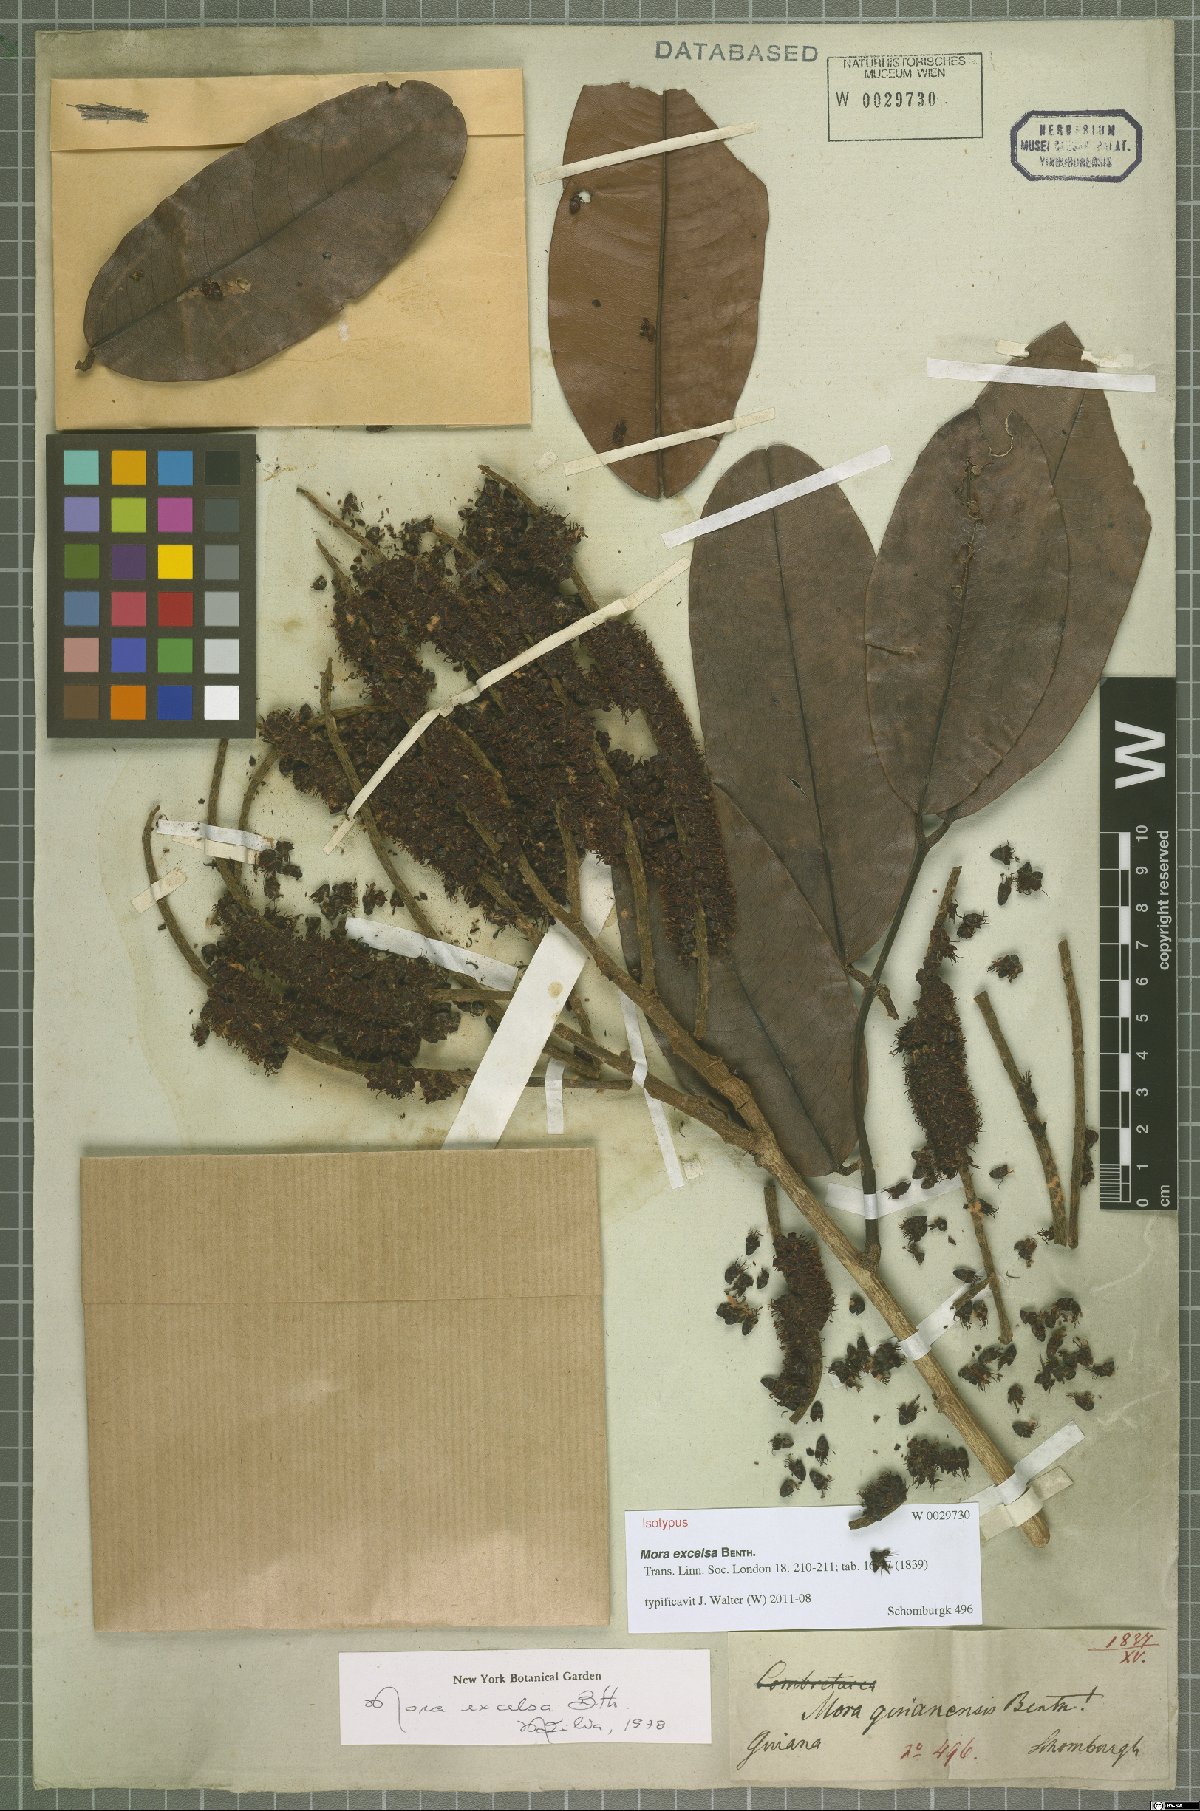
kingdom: Plantae
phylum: Tracheophyta
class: Magnoliopsida
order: Fabales
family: Fabaceae
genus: Mora
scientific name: Mora excelsa
